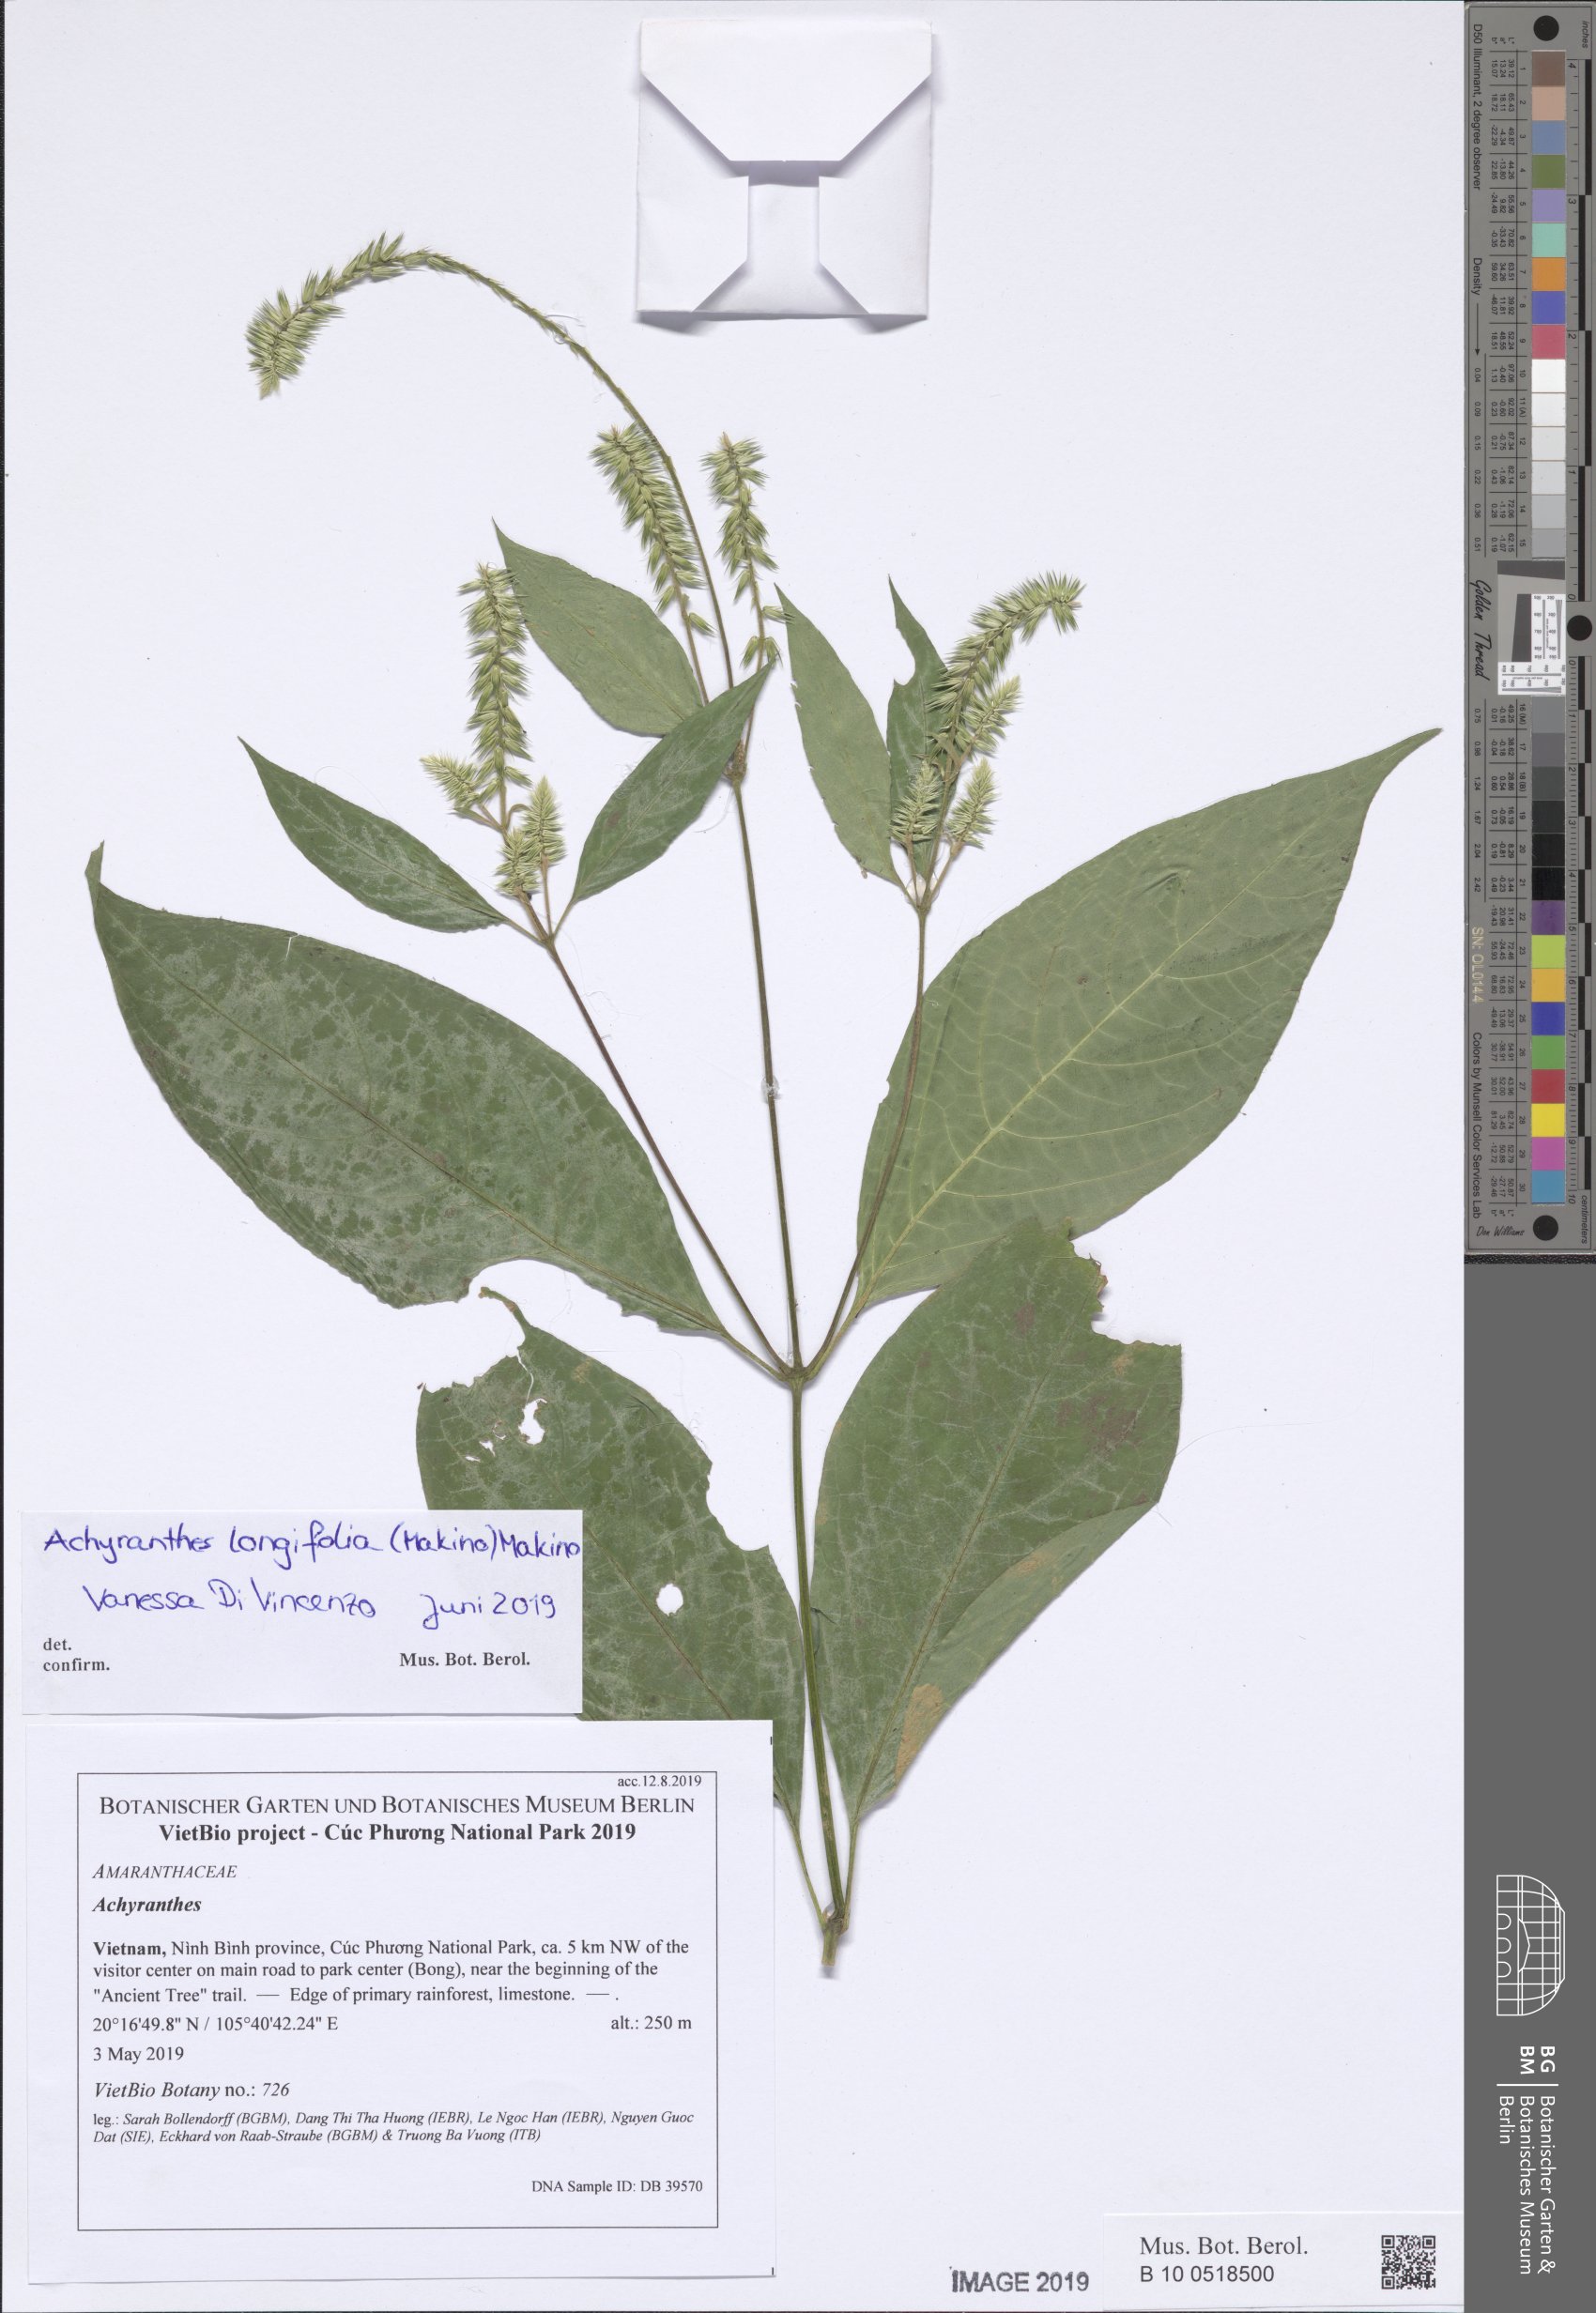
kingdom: Plantae
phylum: Tracheophyta
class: Magnoliopsida
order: Caryophyllales
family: Amaranthaceae
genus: Achyranthes
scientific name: Achyranthes bidentata
